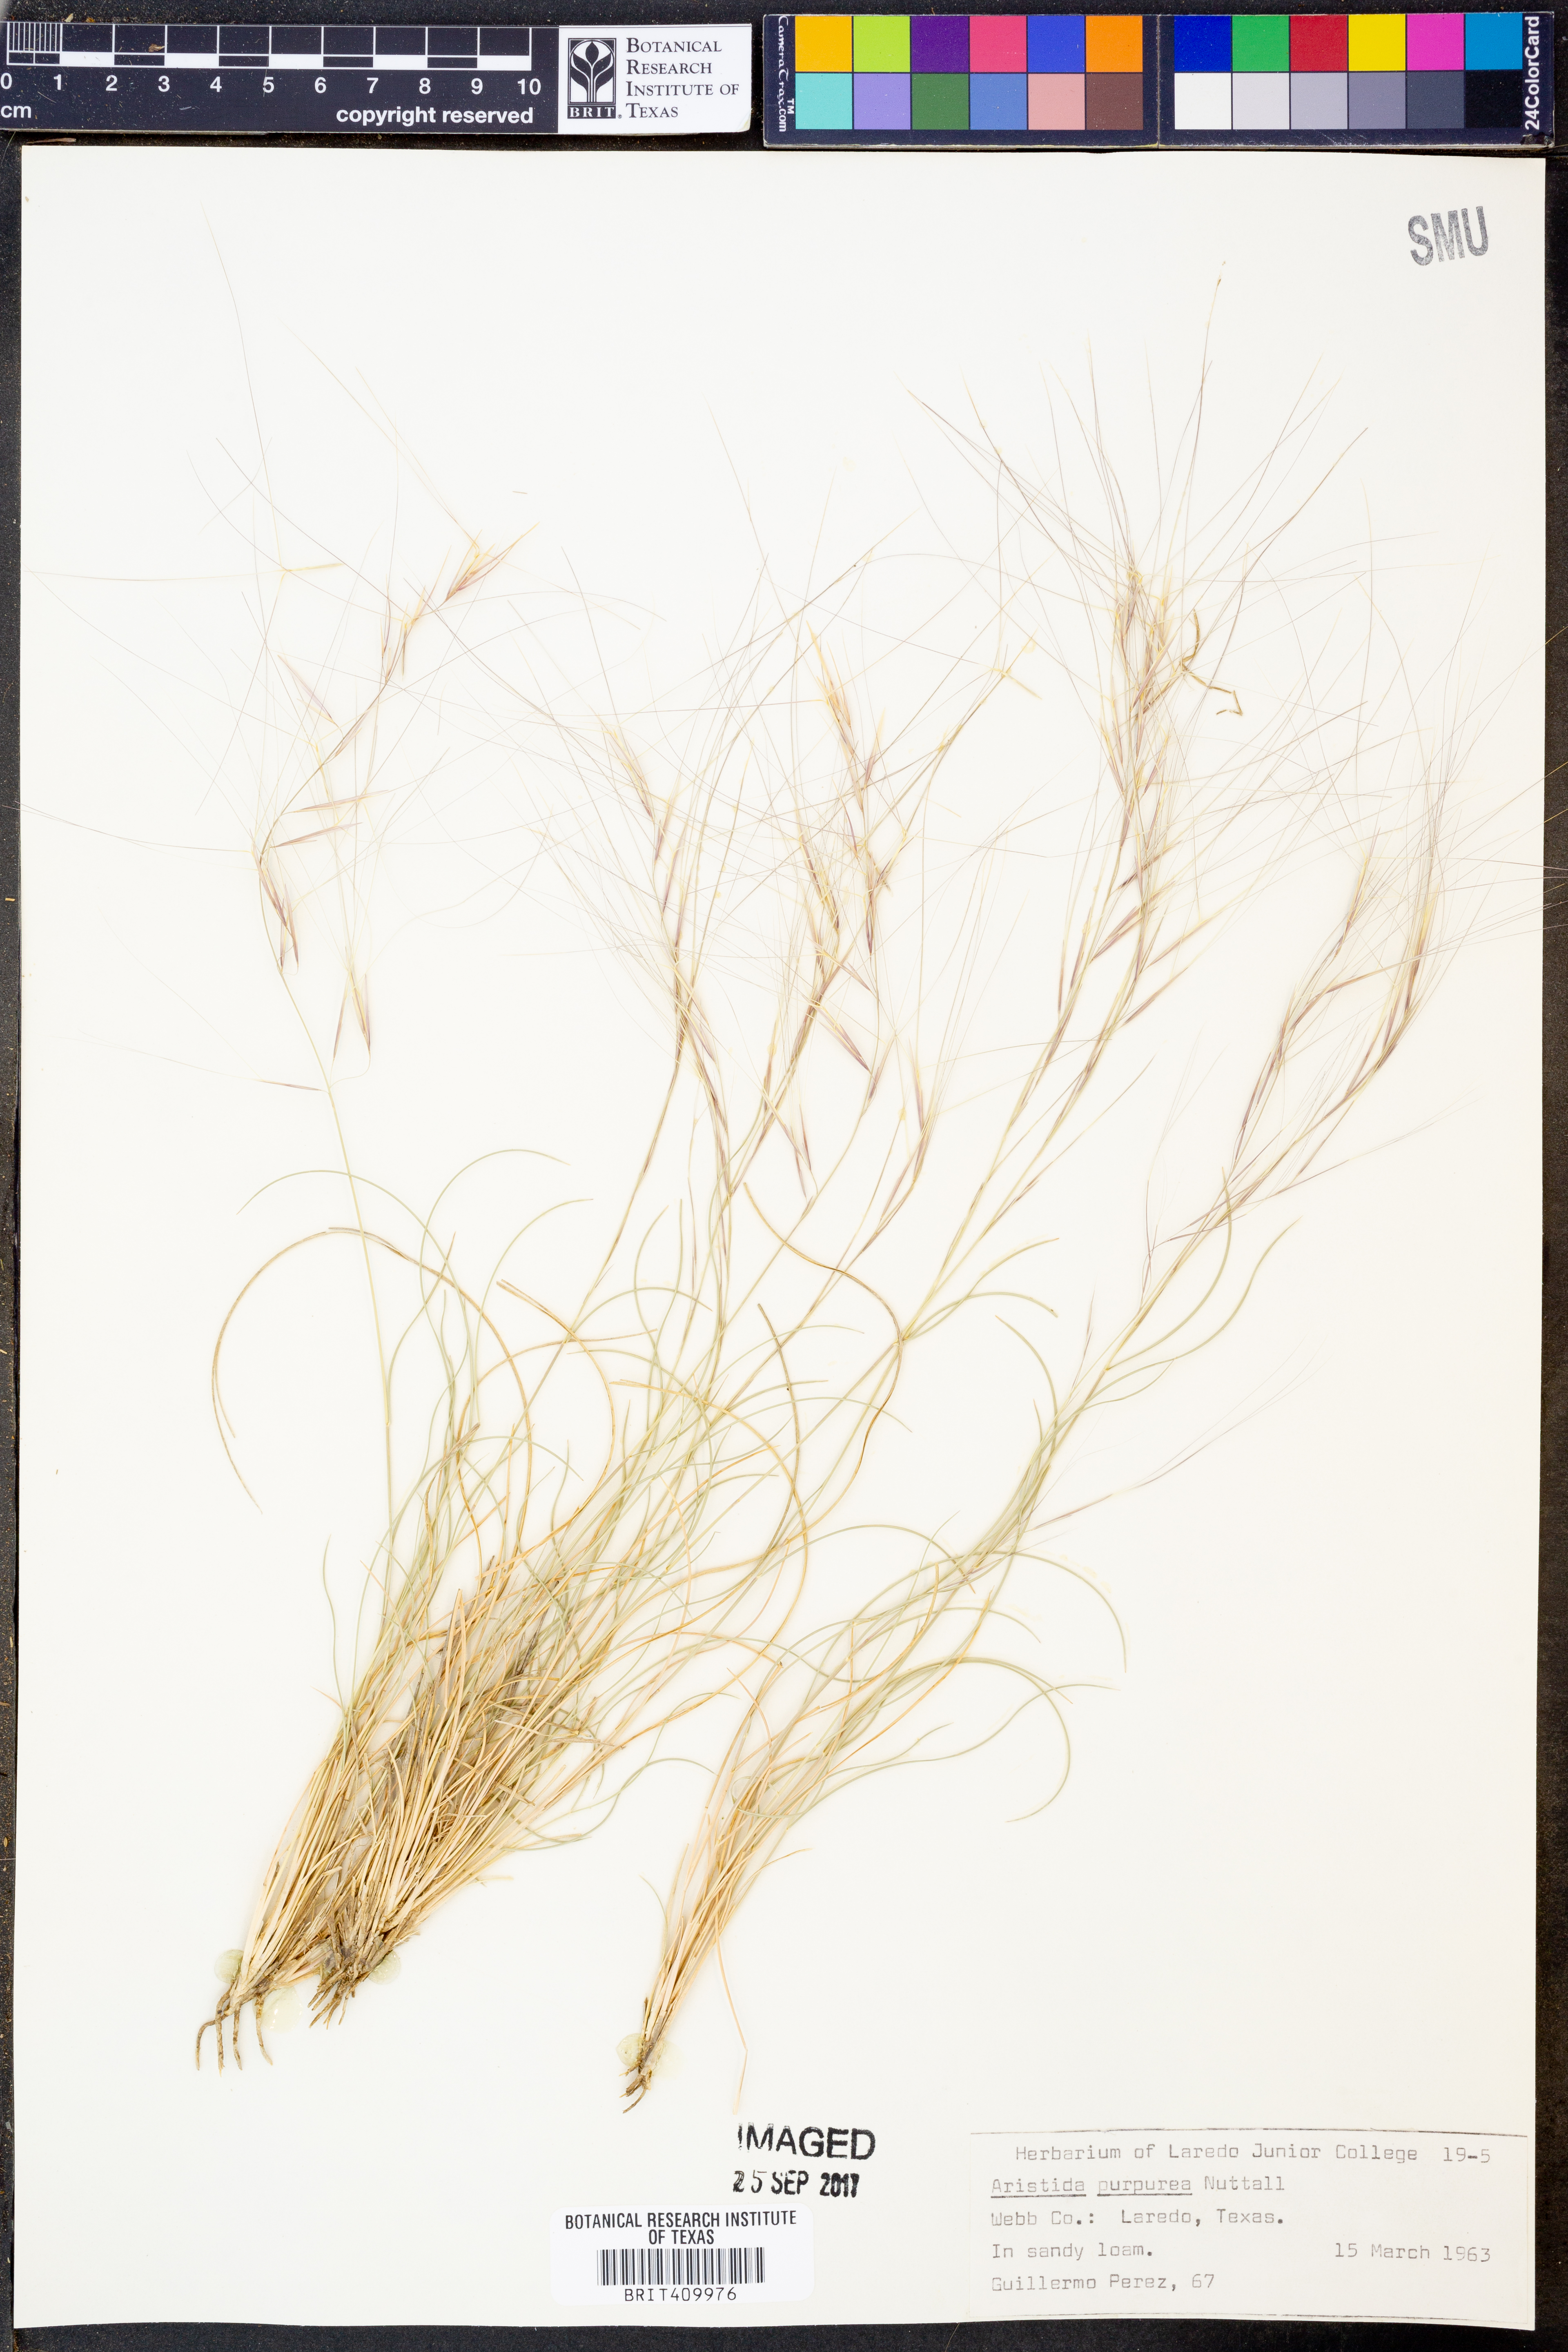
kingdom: Plantae
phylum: Tracheophyta
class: Liliopsida
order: Poales
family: Poaceae
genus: Aristida
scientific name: Aristida purpurea
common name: Purple threeawn
